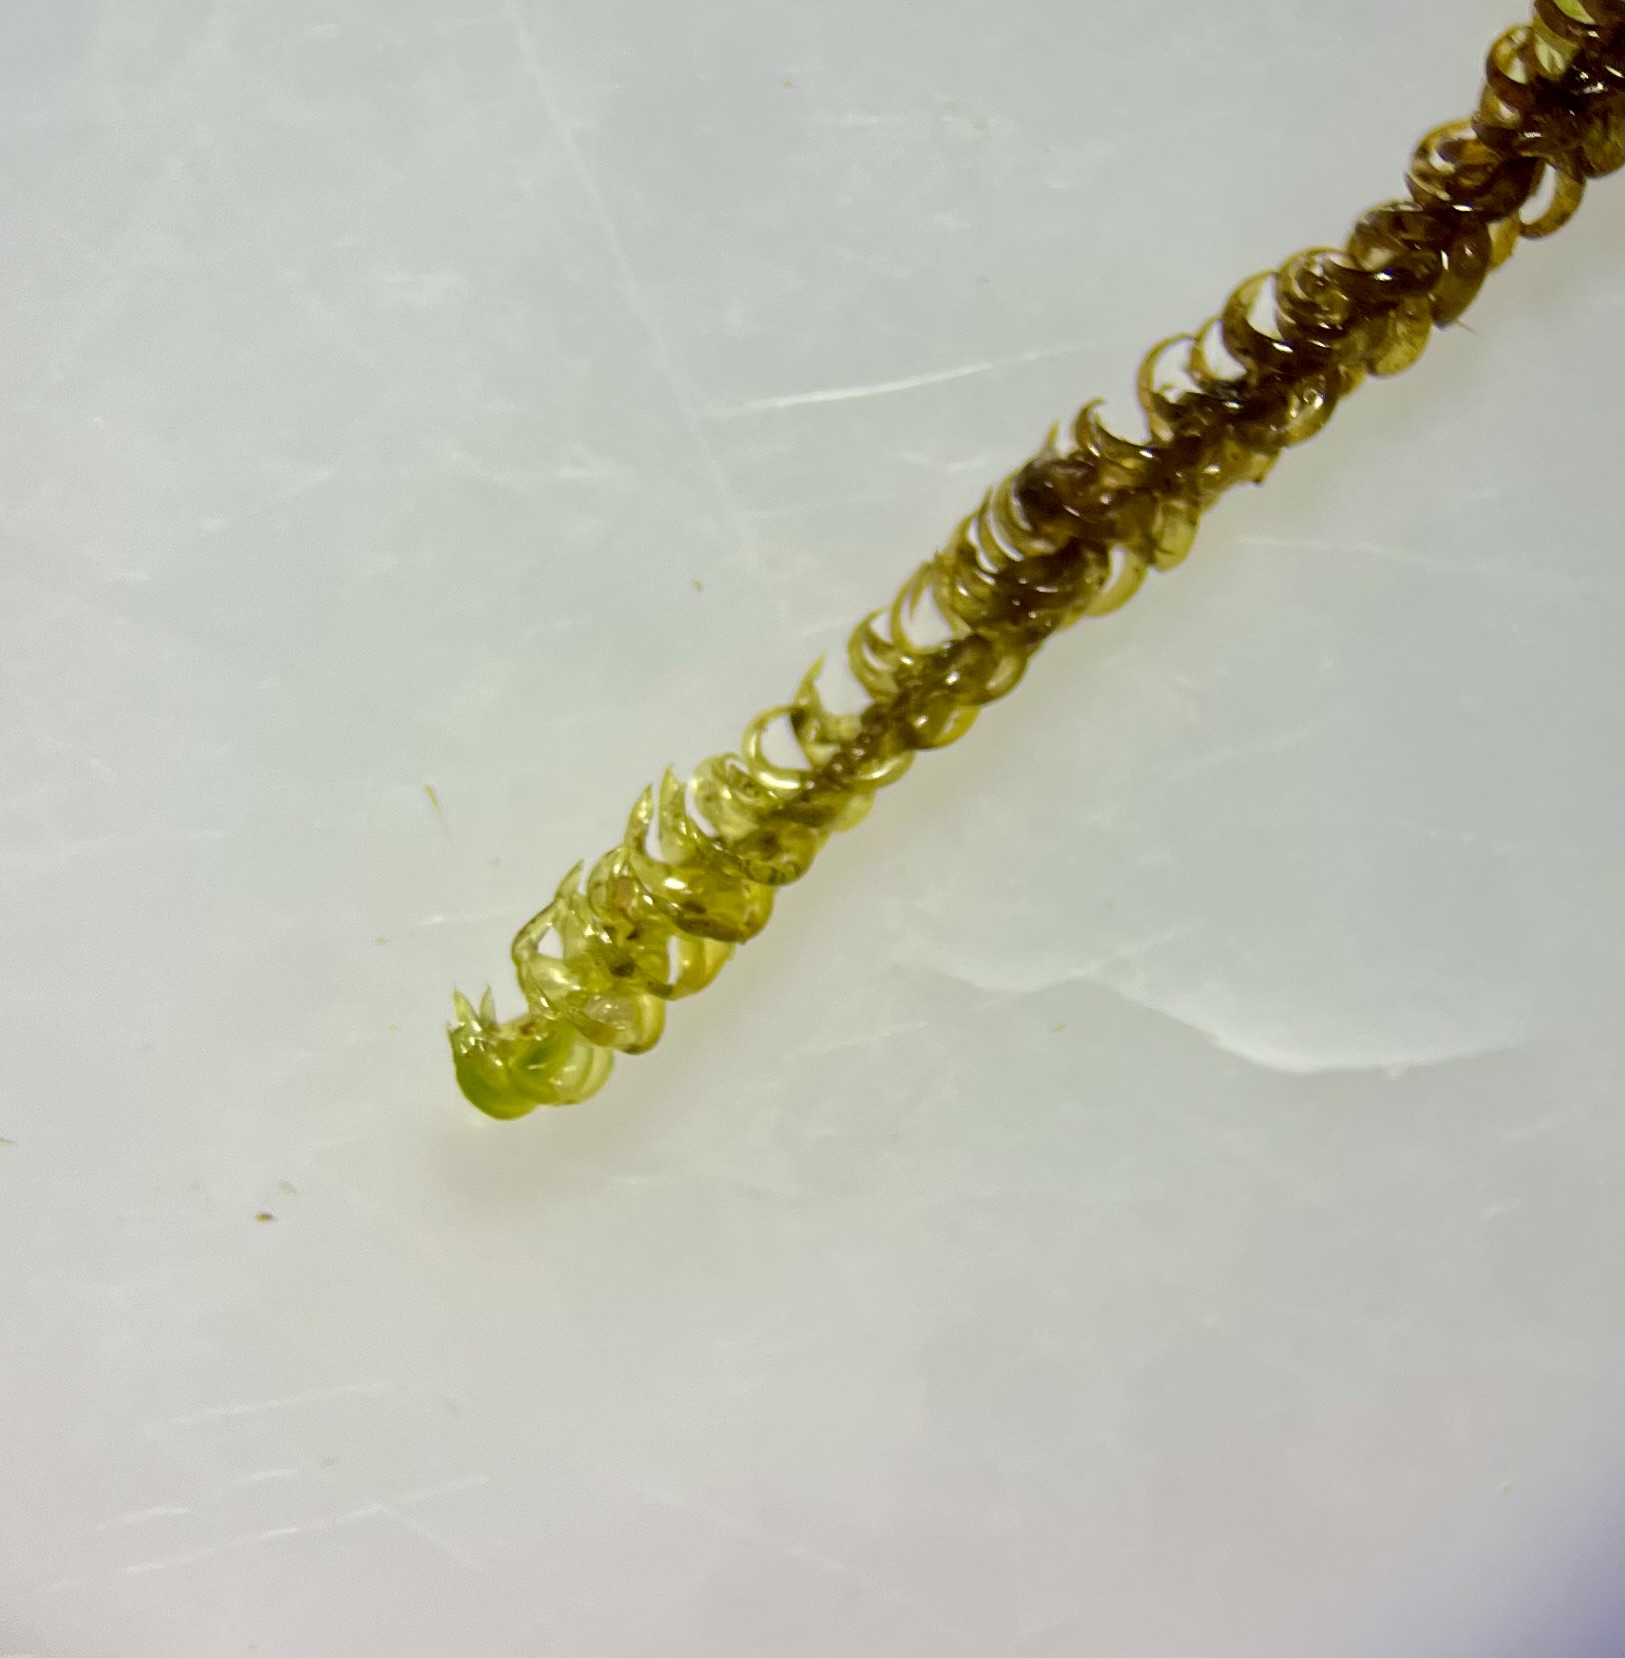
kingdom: Plantae
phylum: Bryophyta
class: Bryopsida
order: Hypnales
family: Scorpidiaceae
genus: Scorpidium
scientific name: Scorpidium cossonii
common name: Grøn krumblad
